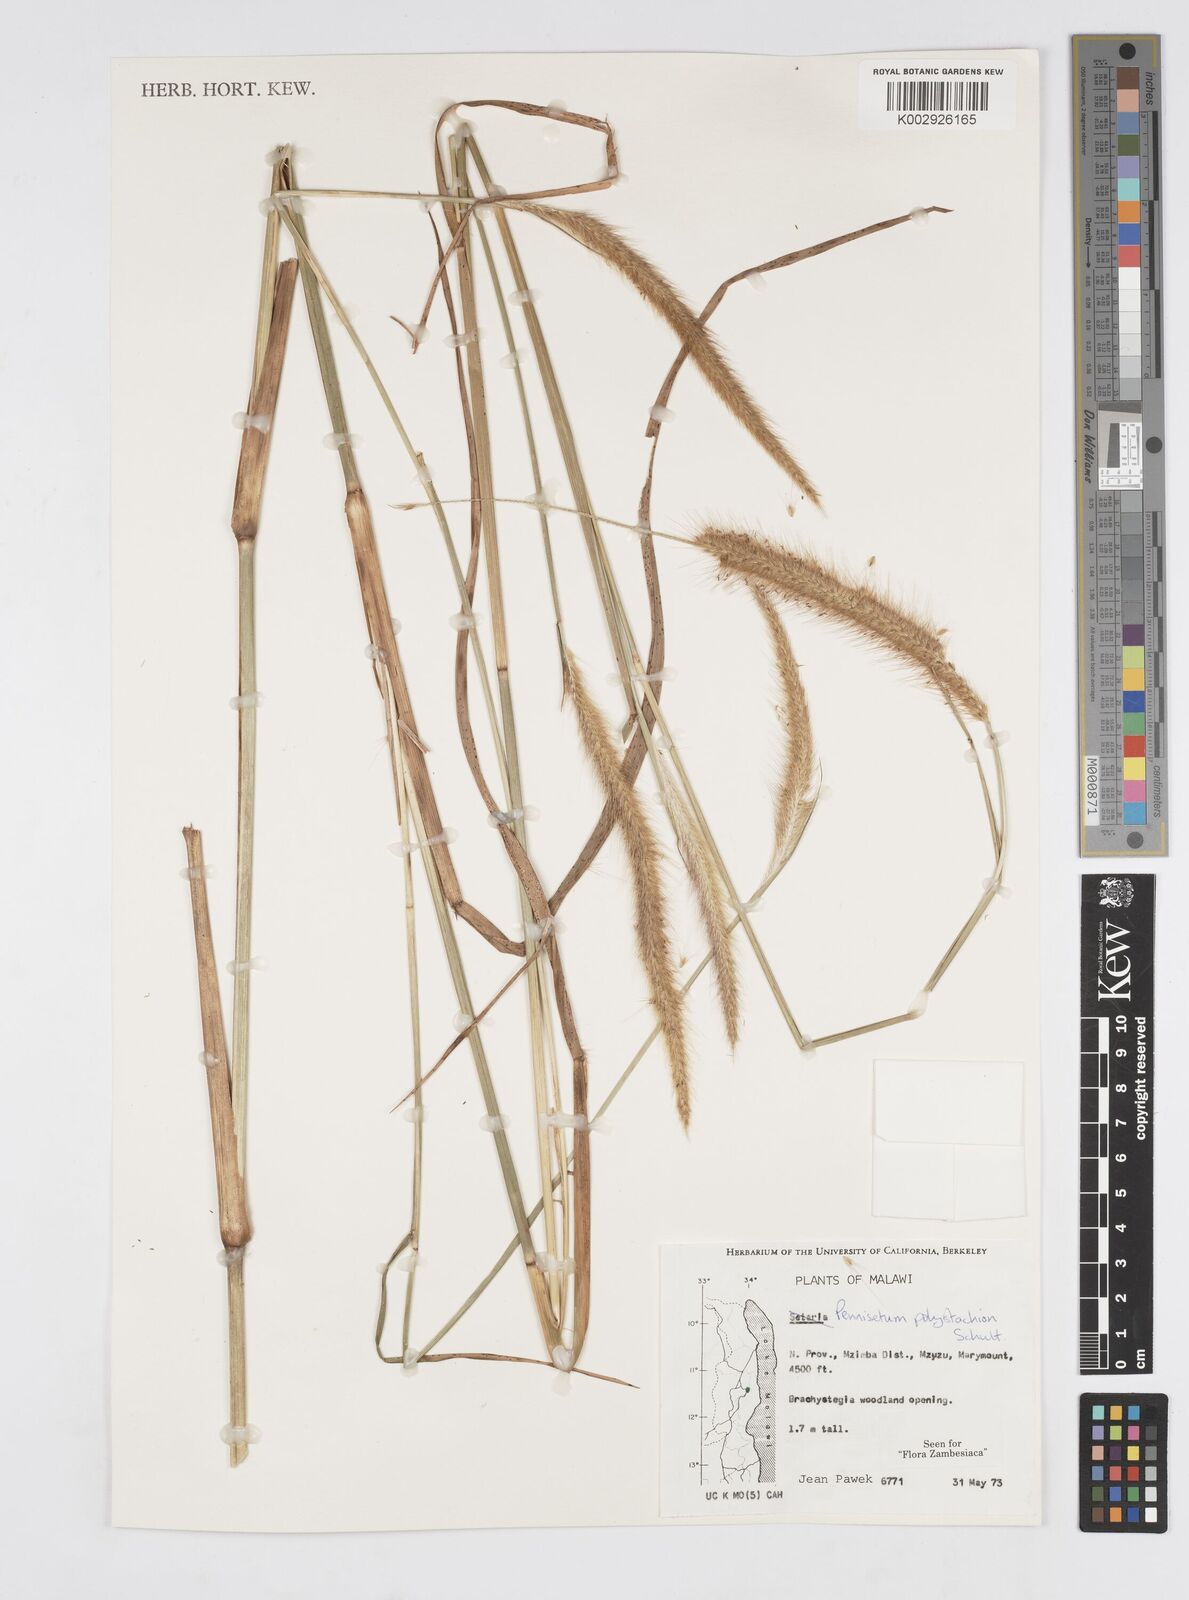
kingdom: Plantae
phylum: Tracheophyta
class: Liliopsida
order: Poales
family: Poaceae
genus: Setaria
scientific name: Setaria parviflora
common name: Knotroot bristle-grass
